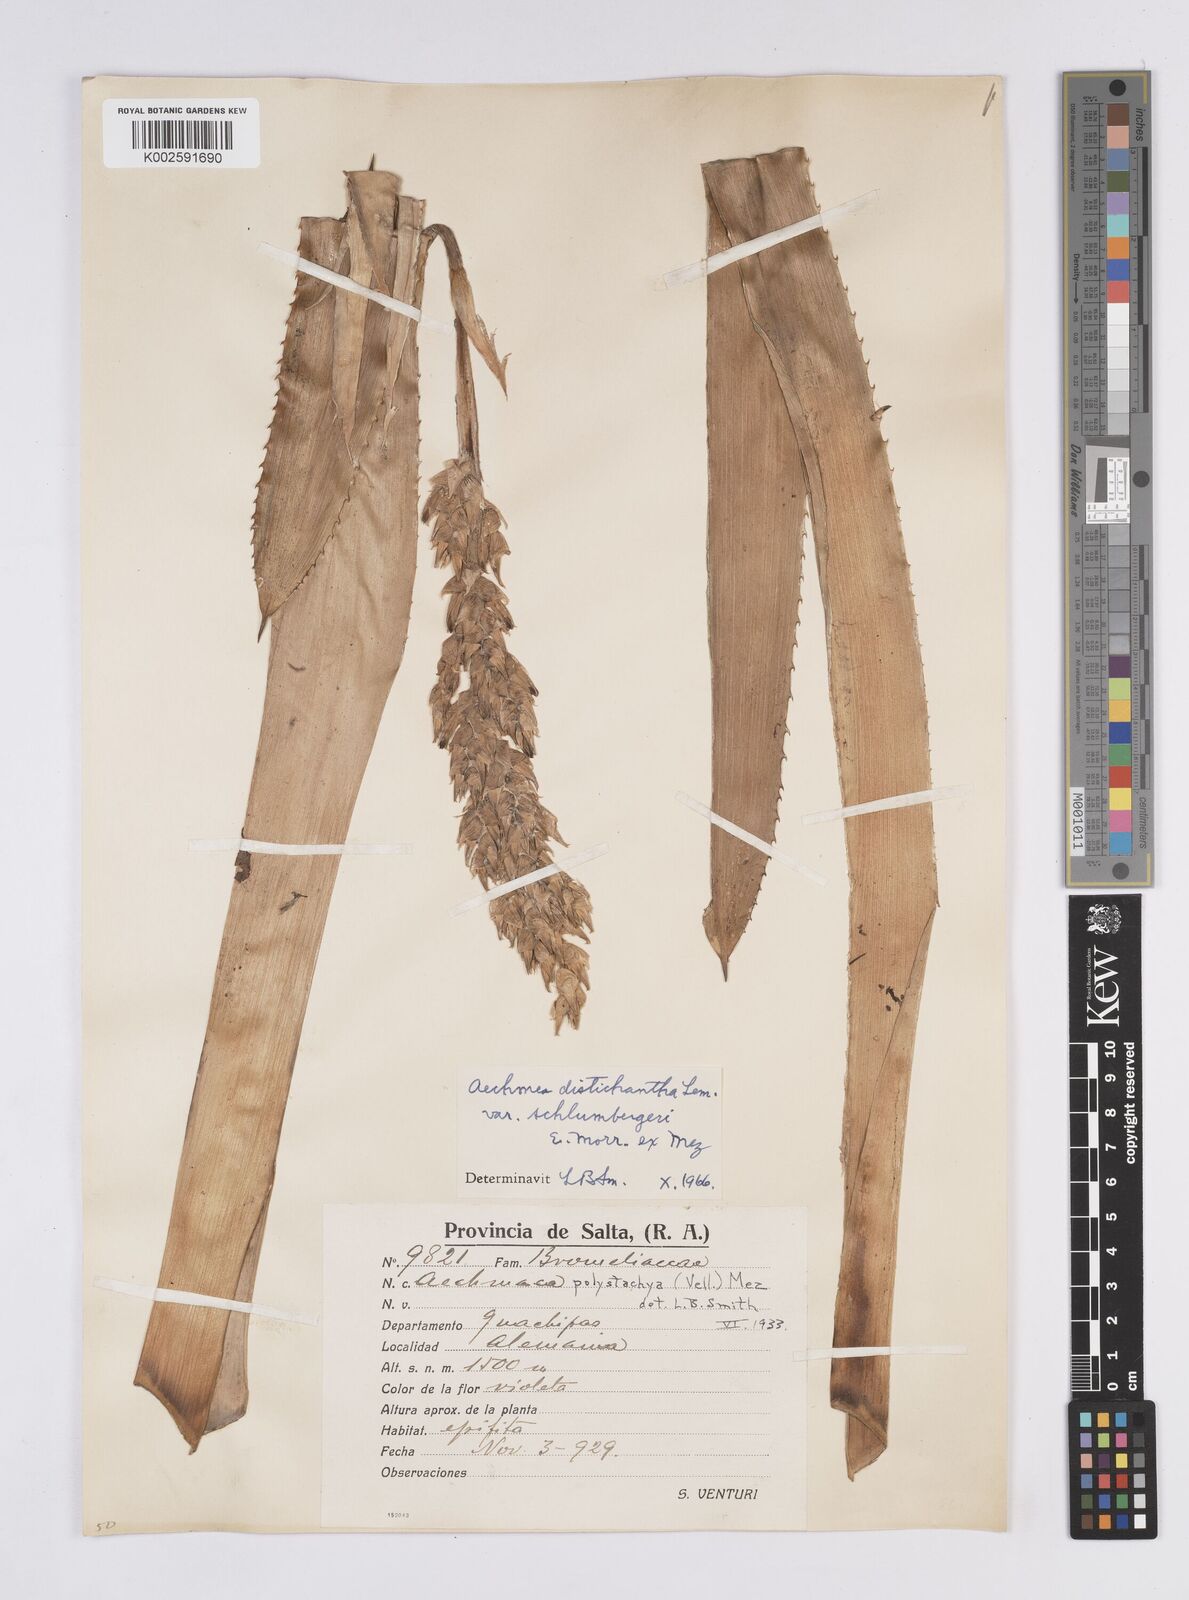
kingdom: Plantae
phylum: Tracheophyta
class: Liliopsida
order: Poales
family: Bromeliaceae
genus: Aechmea
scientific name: Aechmea distichantha
